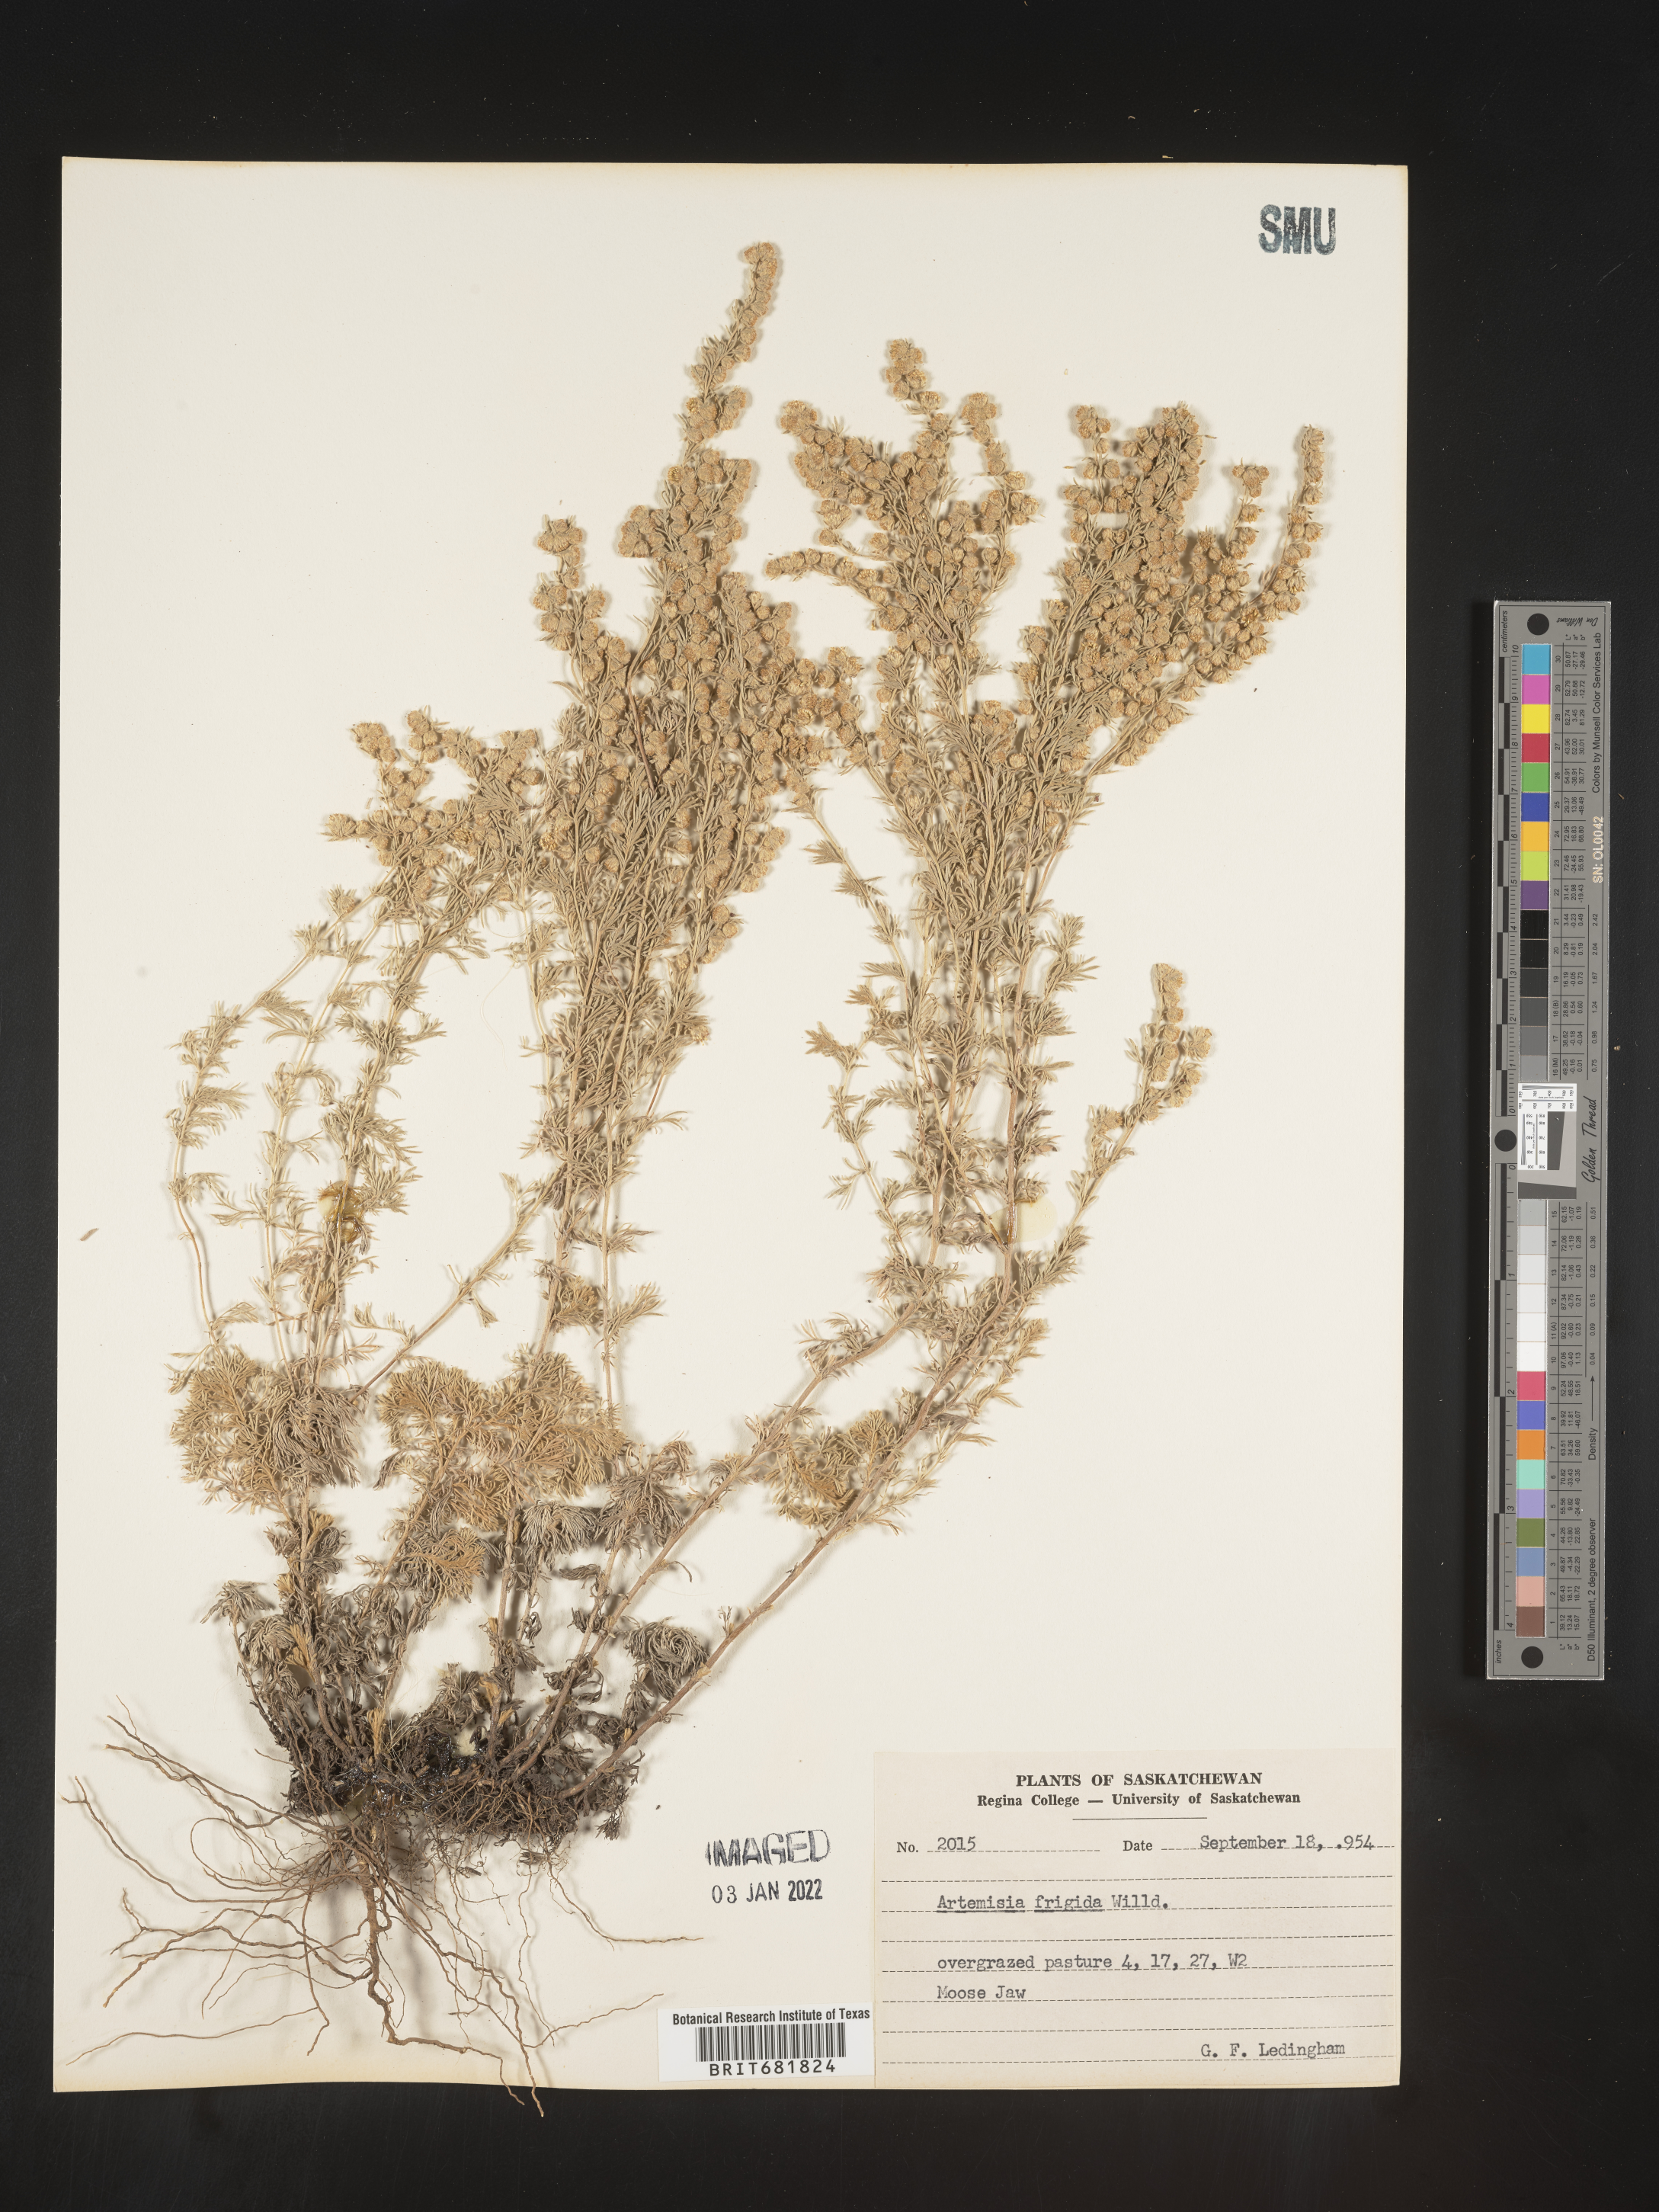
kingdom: Plantae
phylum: Tracheophyta
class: Magnoliopsida
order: Asterales
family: Asteraceae
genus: Artemisia
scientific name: Artemisia frigida
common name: Prairie sagewort
